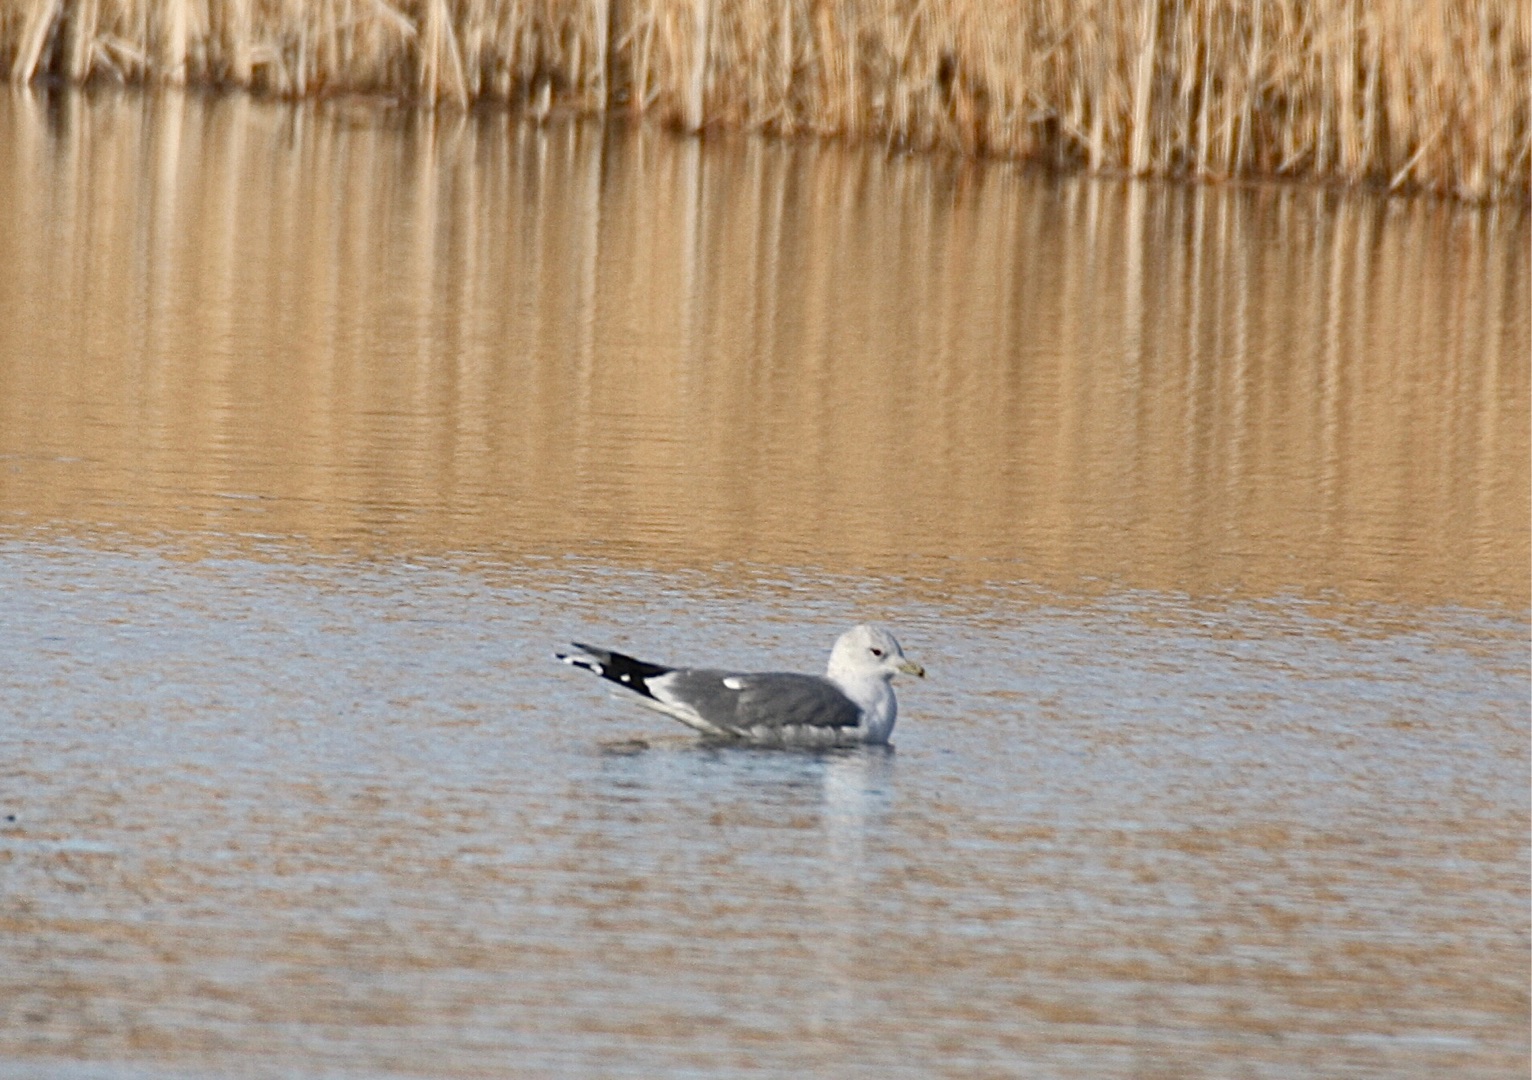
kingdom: Animalia
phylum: Chordata
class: Aves
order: Charadriiformes
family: Laridae
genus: Larus
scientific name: Larus canus
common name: Stormmåge
